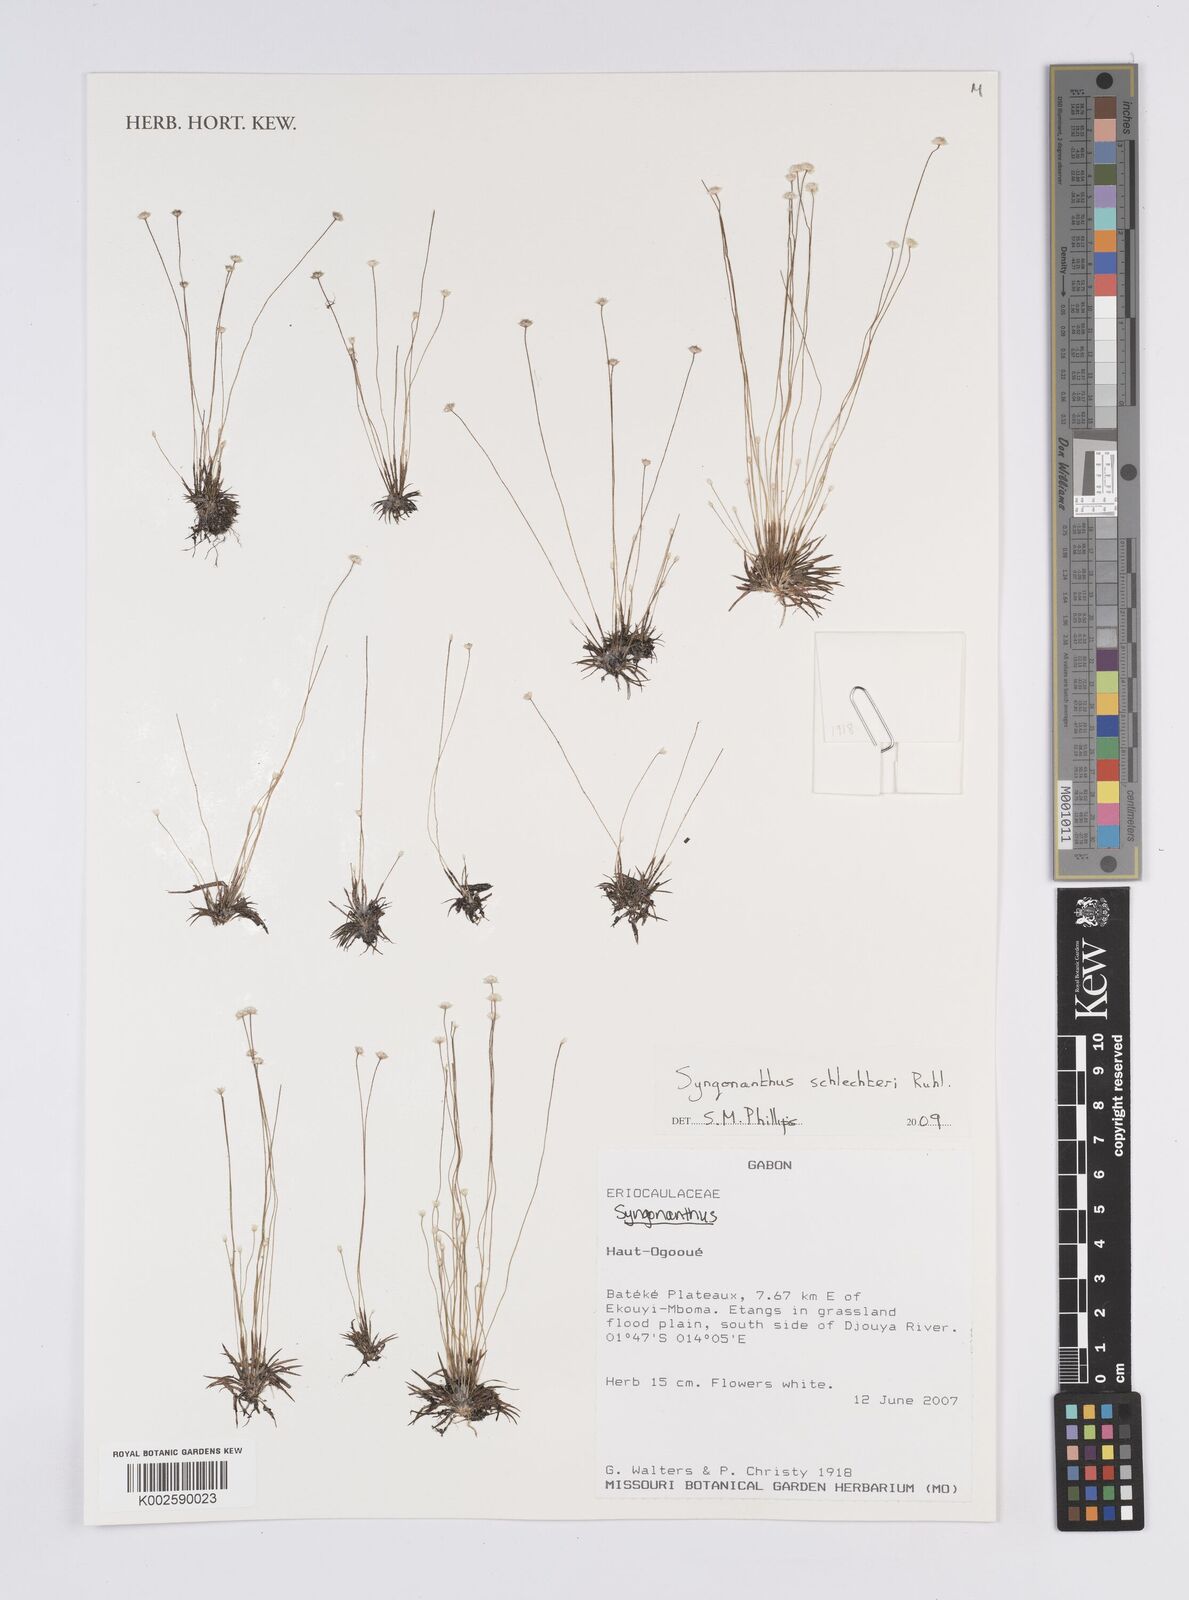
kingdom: Plantae
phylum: Tracheophyta
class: Liliopsida
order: Poales
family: Eriocaulaceae
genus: Syngonanthus
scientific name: Syngonanthus schlechteri
